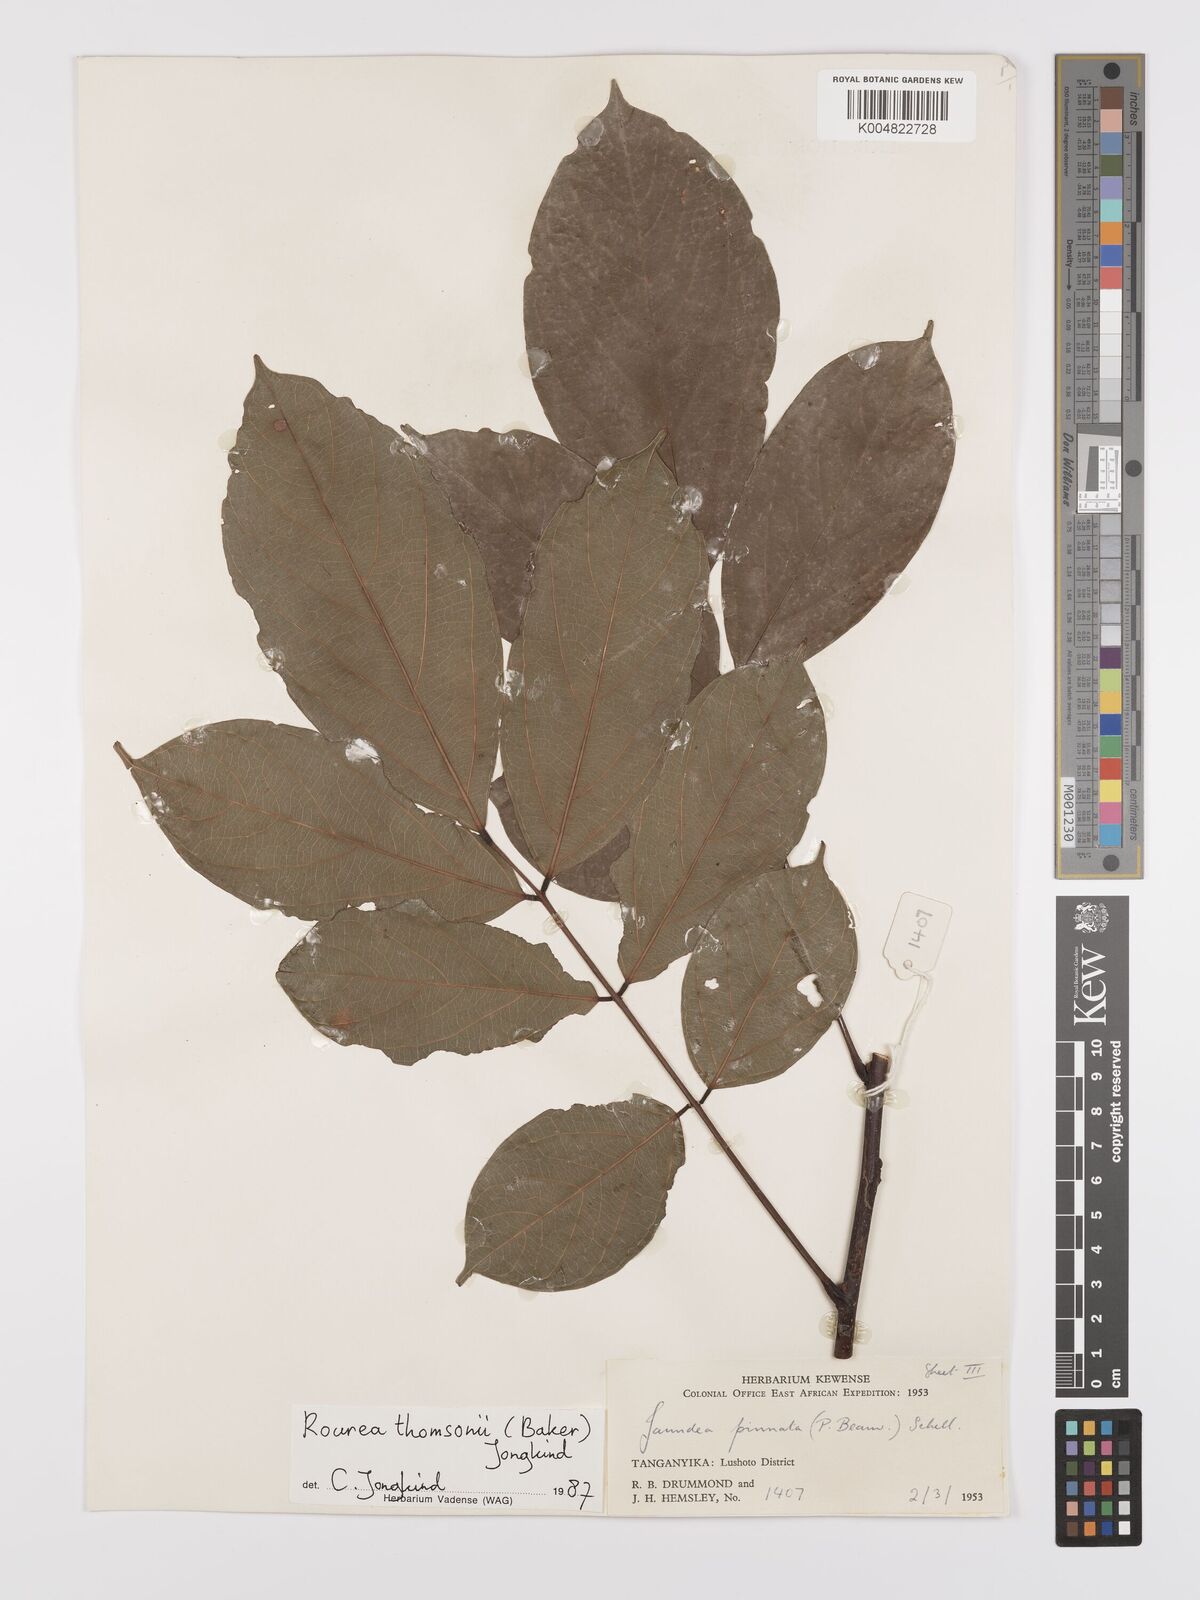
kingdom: Plantae
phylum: Tracheophyta
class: Magnoliopsida
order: Oxalidales
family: Connaraceae
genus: Rourea
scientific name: Rourea pinnata
